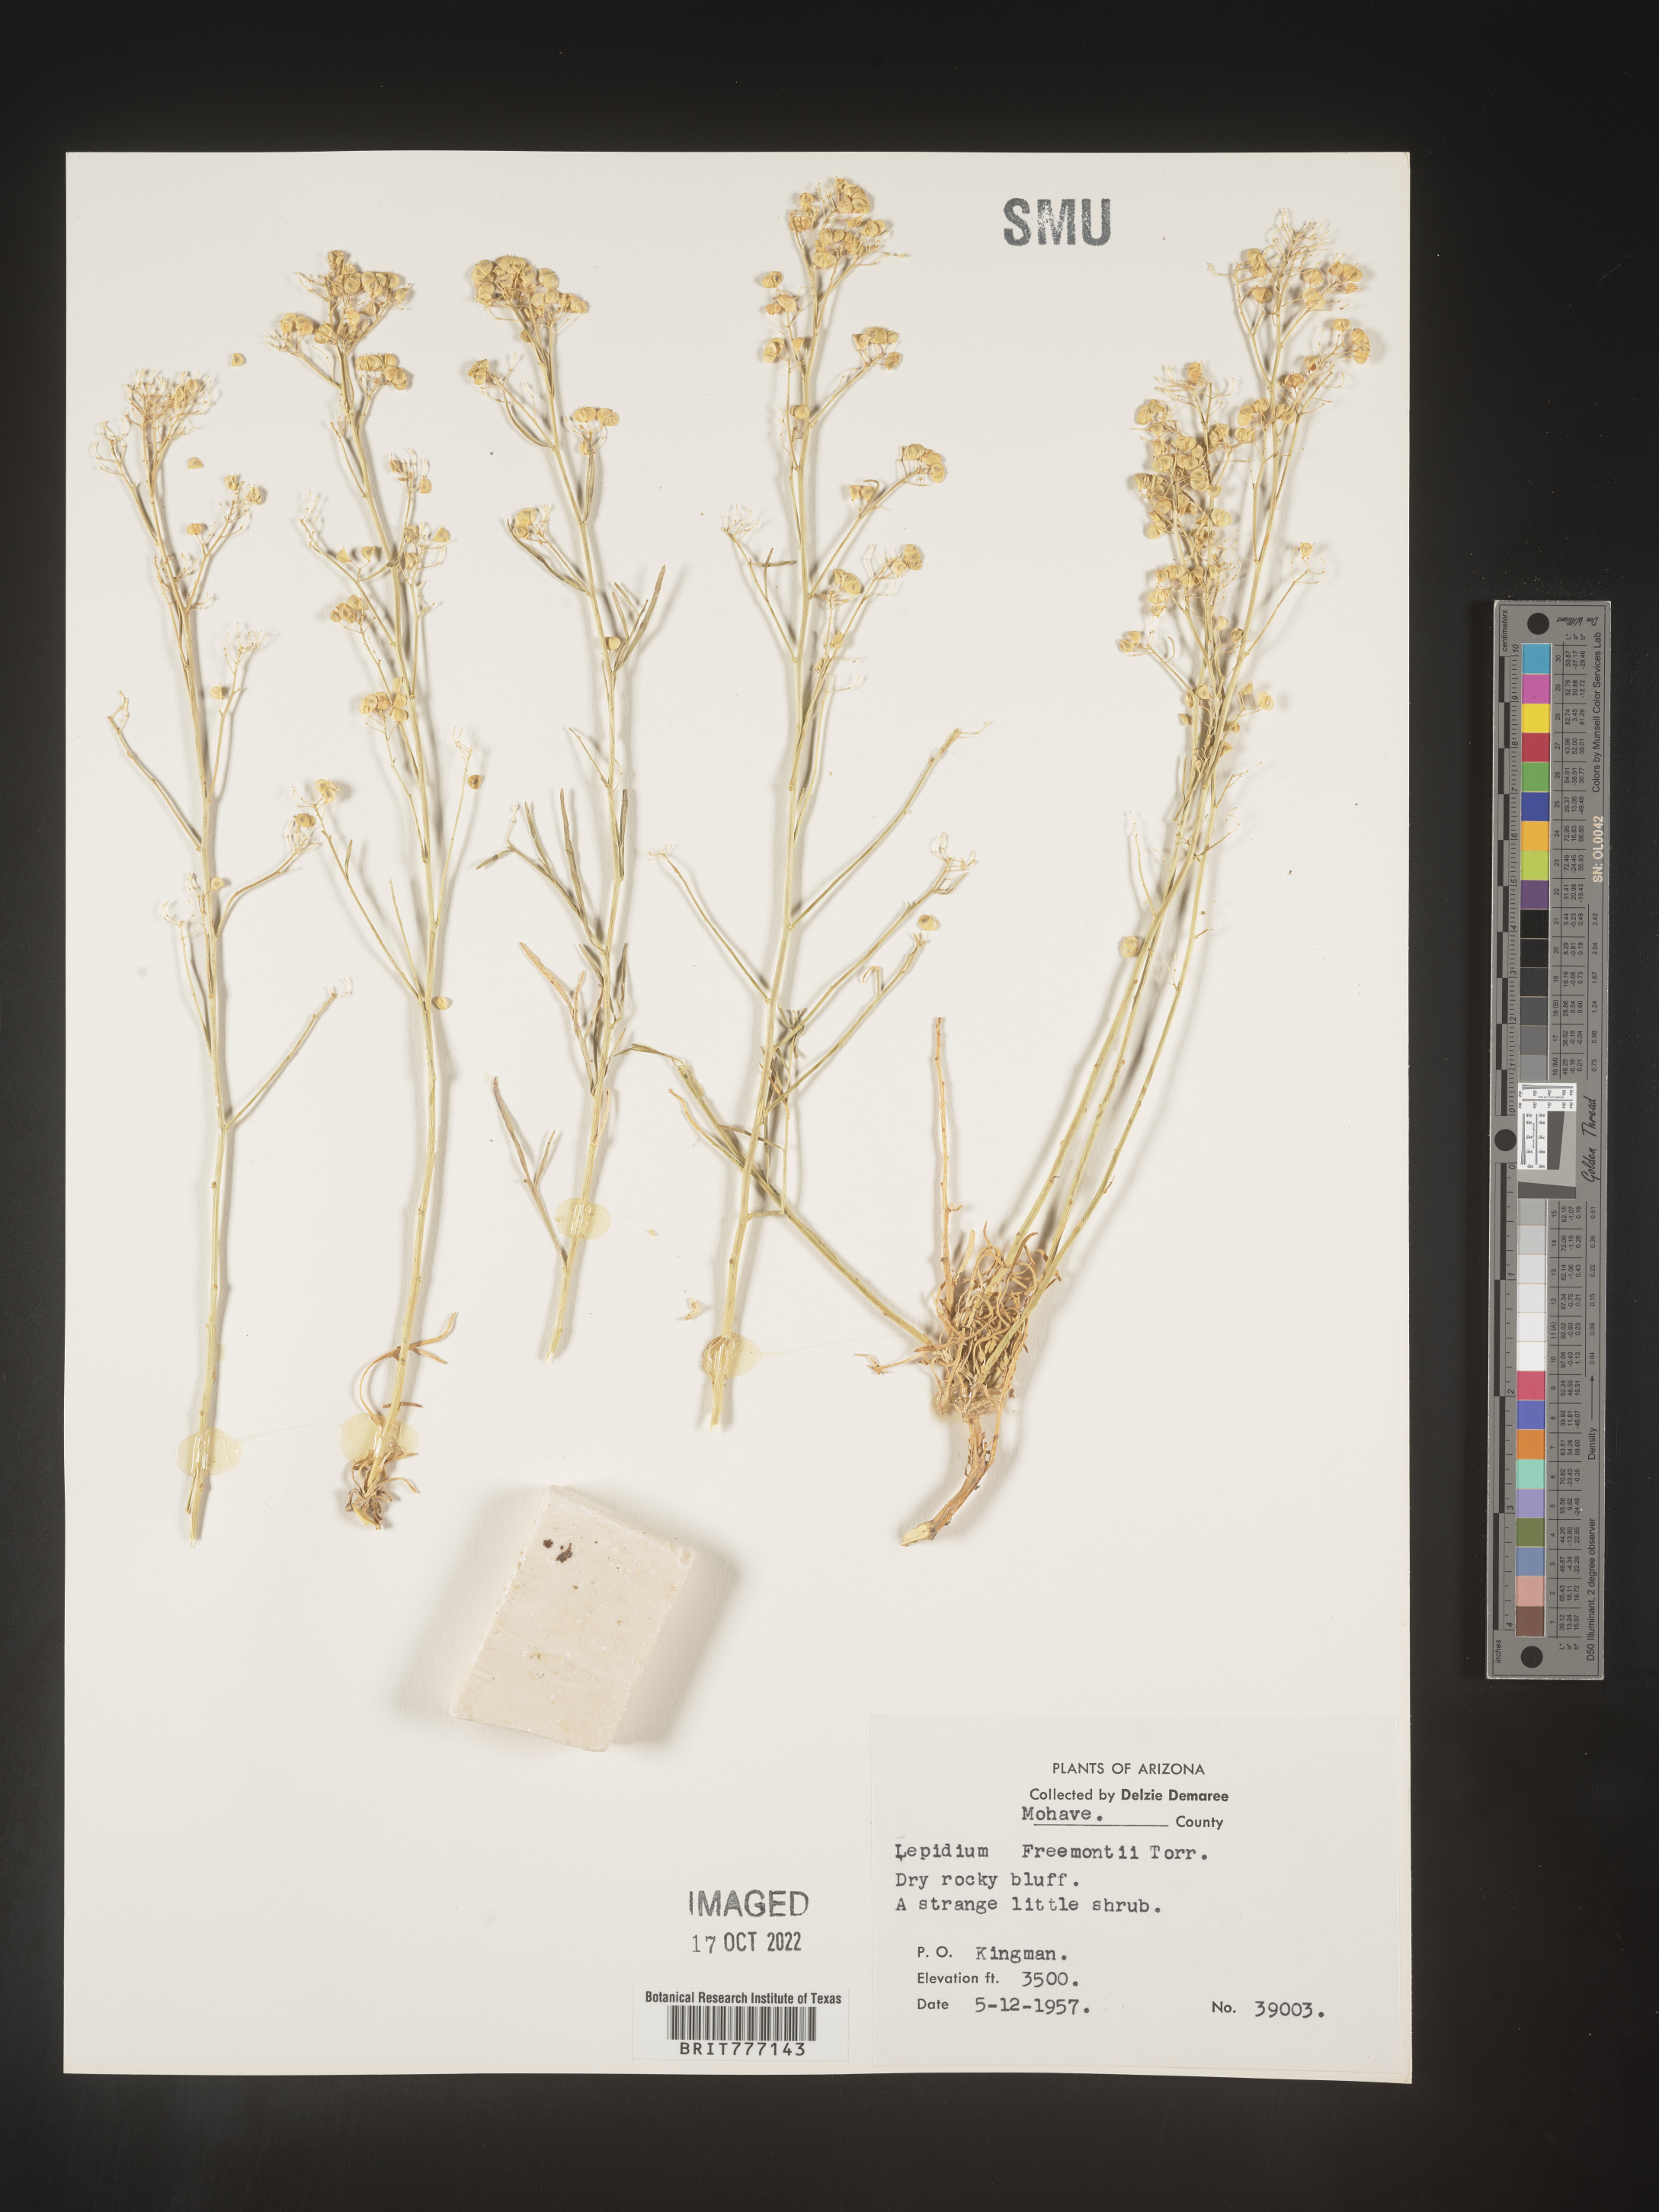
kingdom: Plantae
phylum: Tracheophyta
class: Magnoliopsida
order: Brassicales
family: Brassicaceae
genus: Lepidium
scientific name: Lepidium fremontii
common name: Fremont's pepperwort
